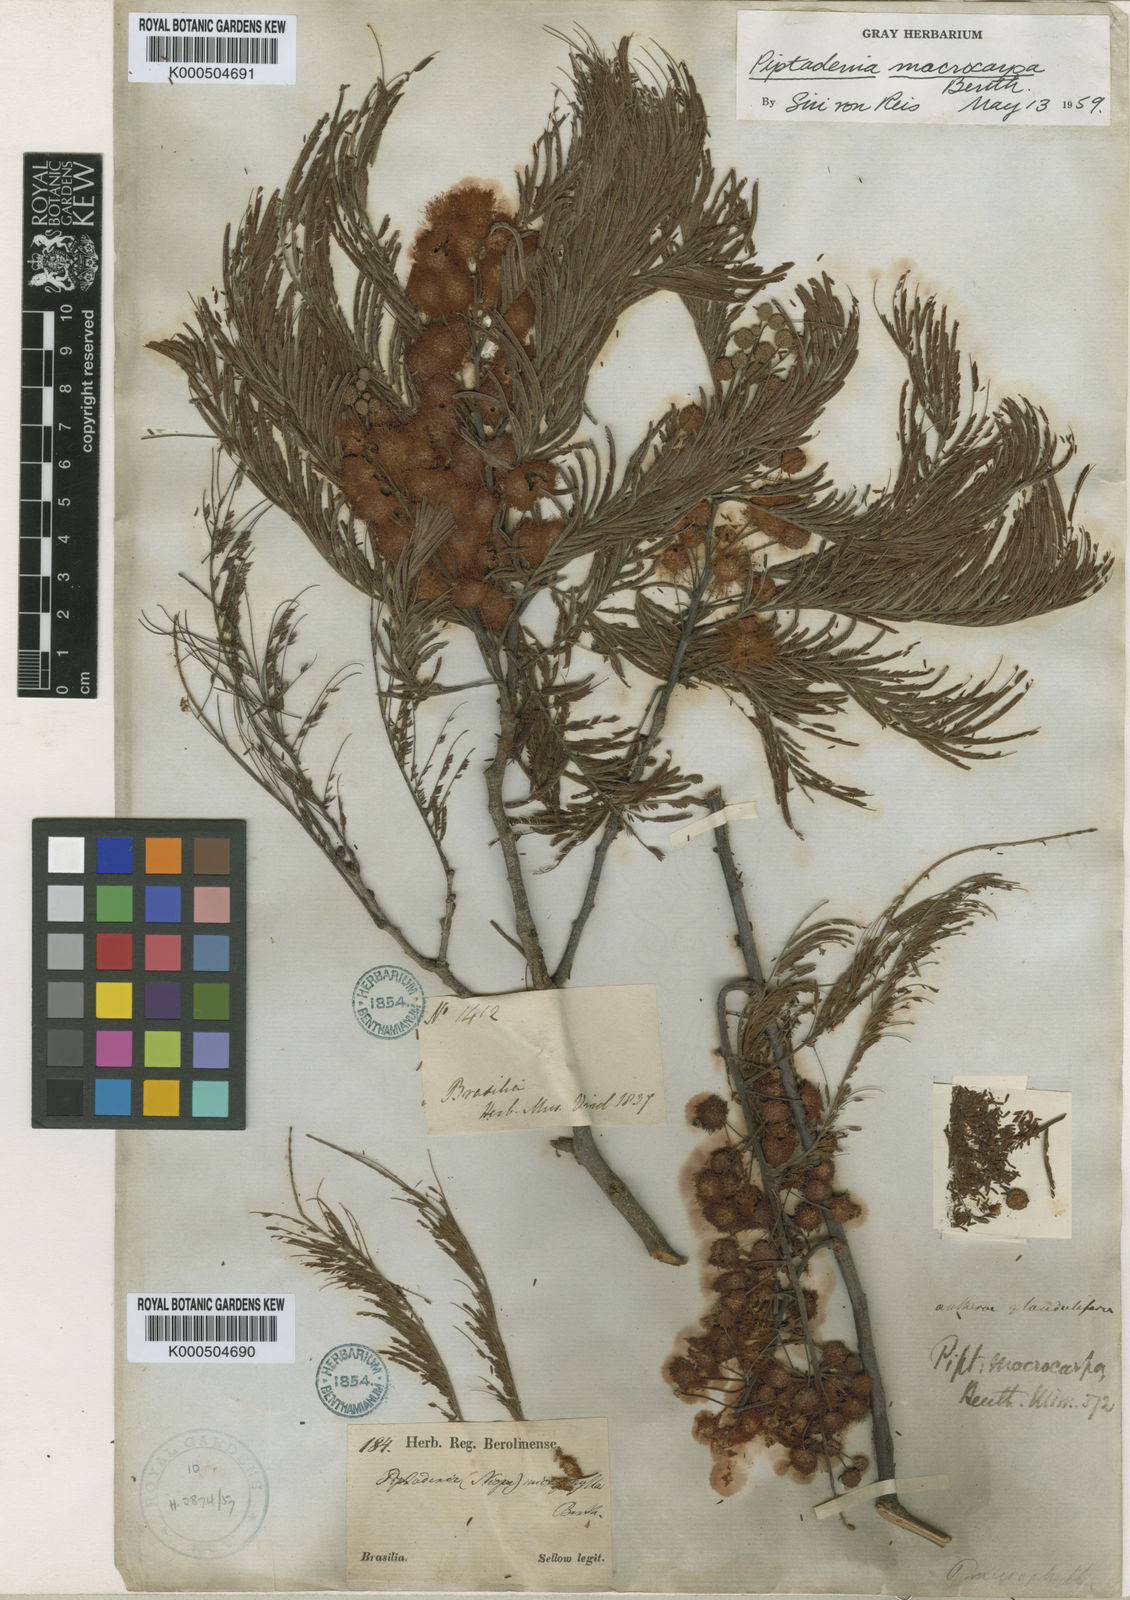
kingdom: Plantae
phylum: Tracheophyta
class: Magnoliopsida
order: Fabales
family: Fabaceae
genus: Anadenanthera
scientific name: Anadenanthera colubrina
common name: Curupay
